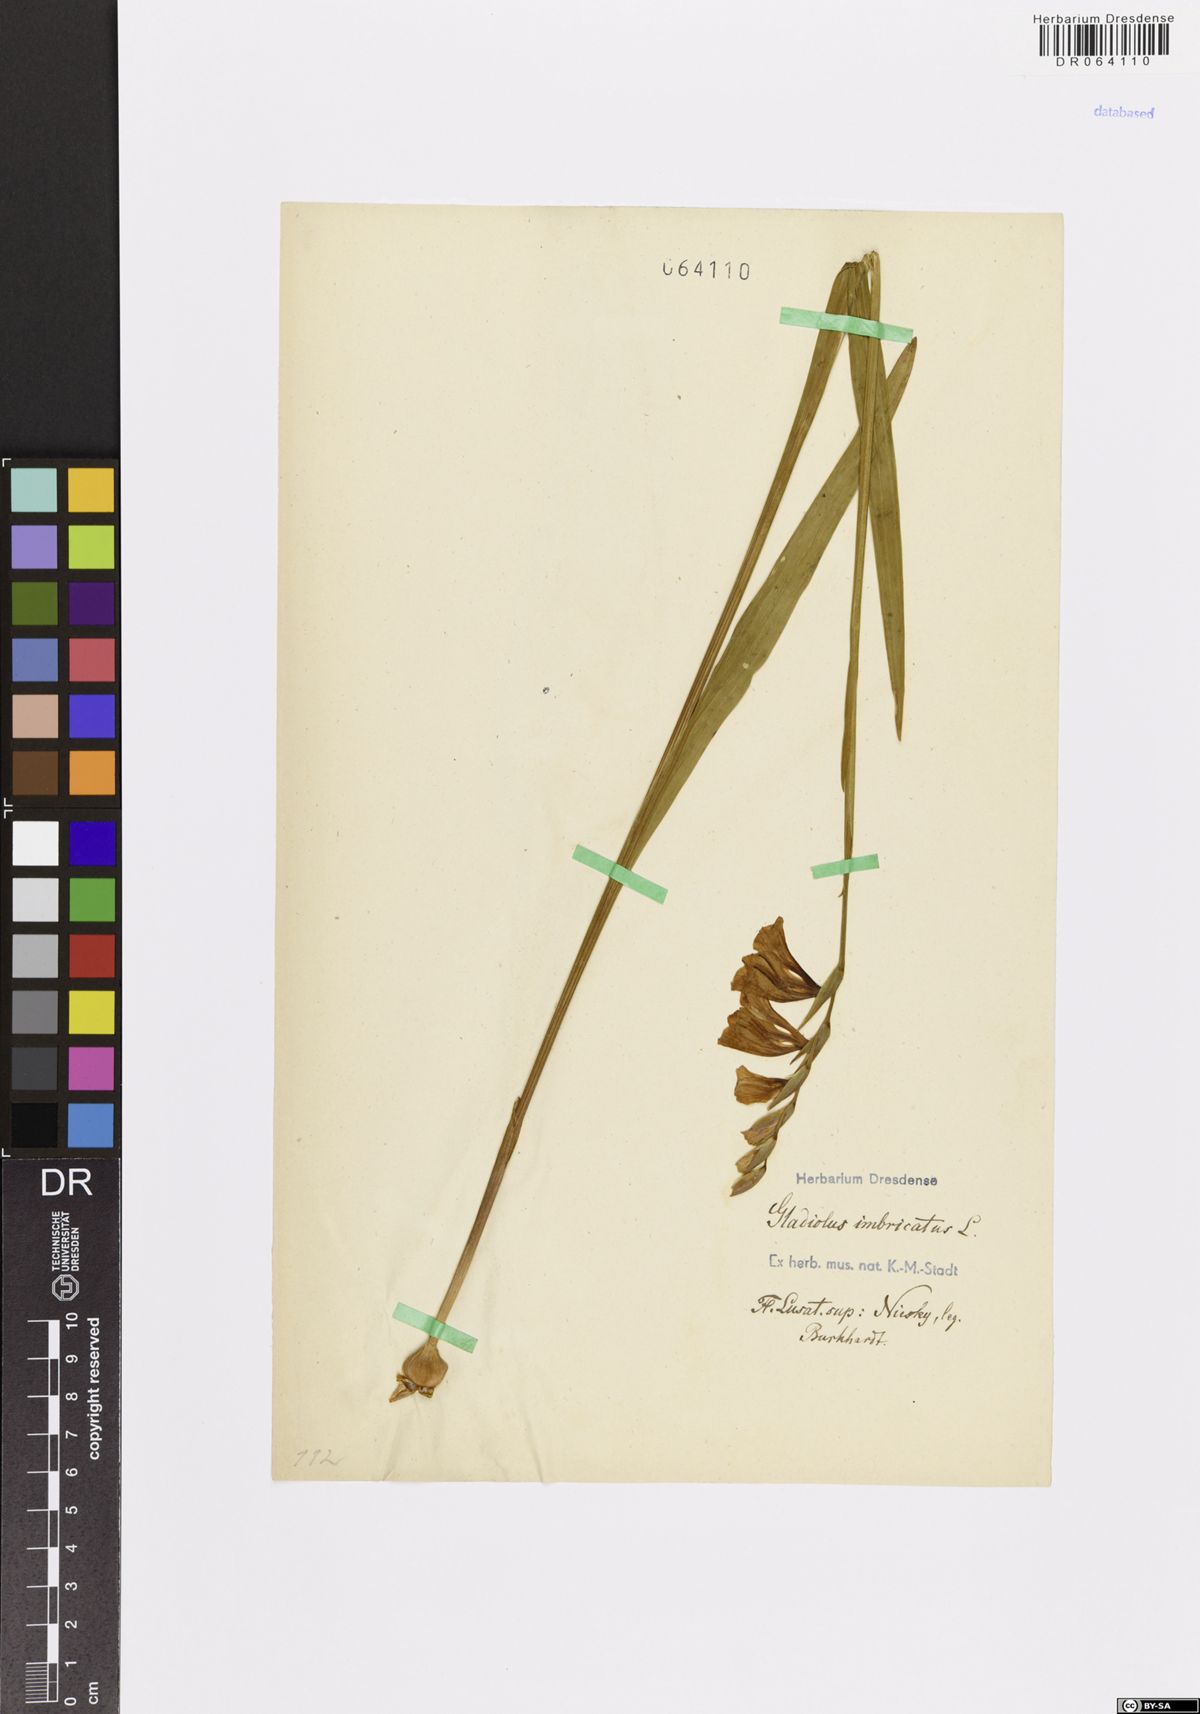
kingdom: Plantae
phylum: Tracheophyta
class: Liliopsida
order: Asparagales
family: Iridaceae
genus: Gladiolus
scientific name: Gladiolus imbricatus
